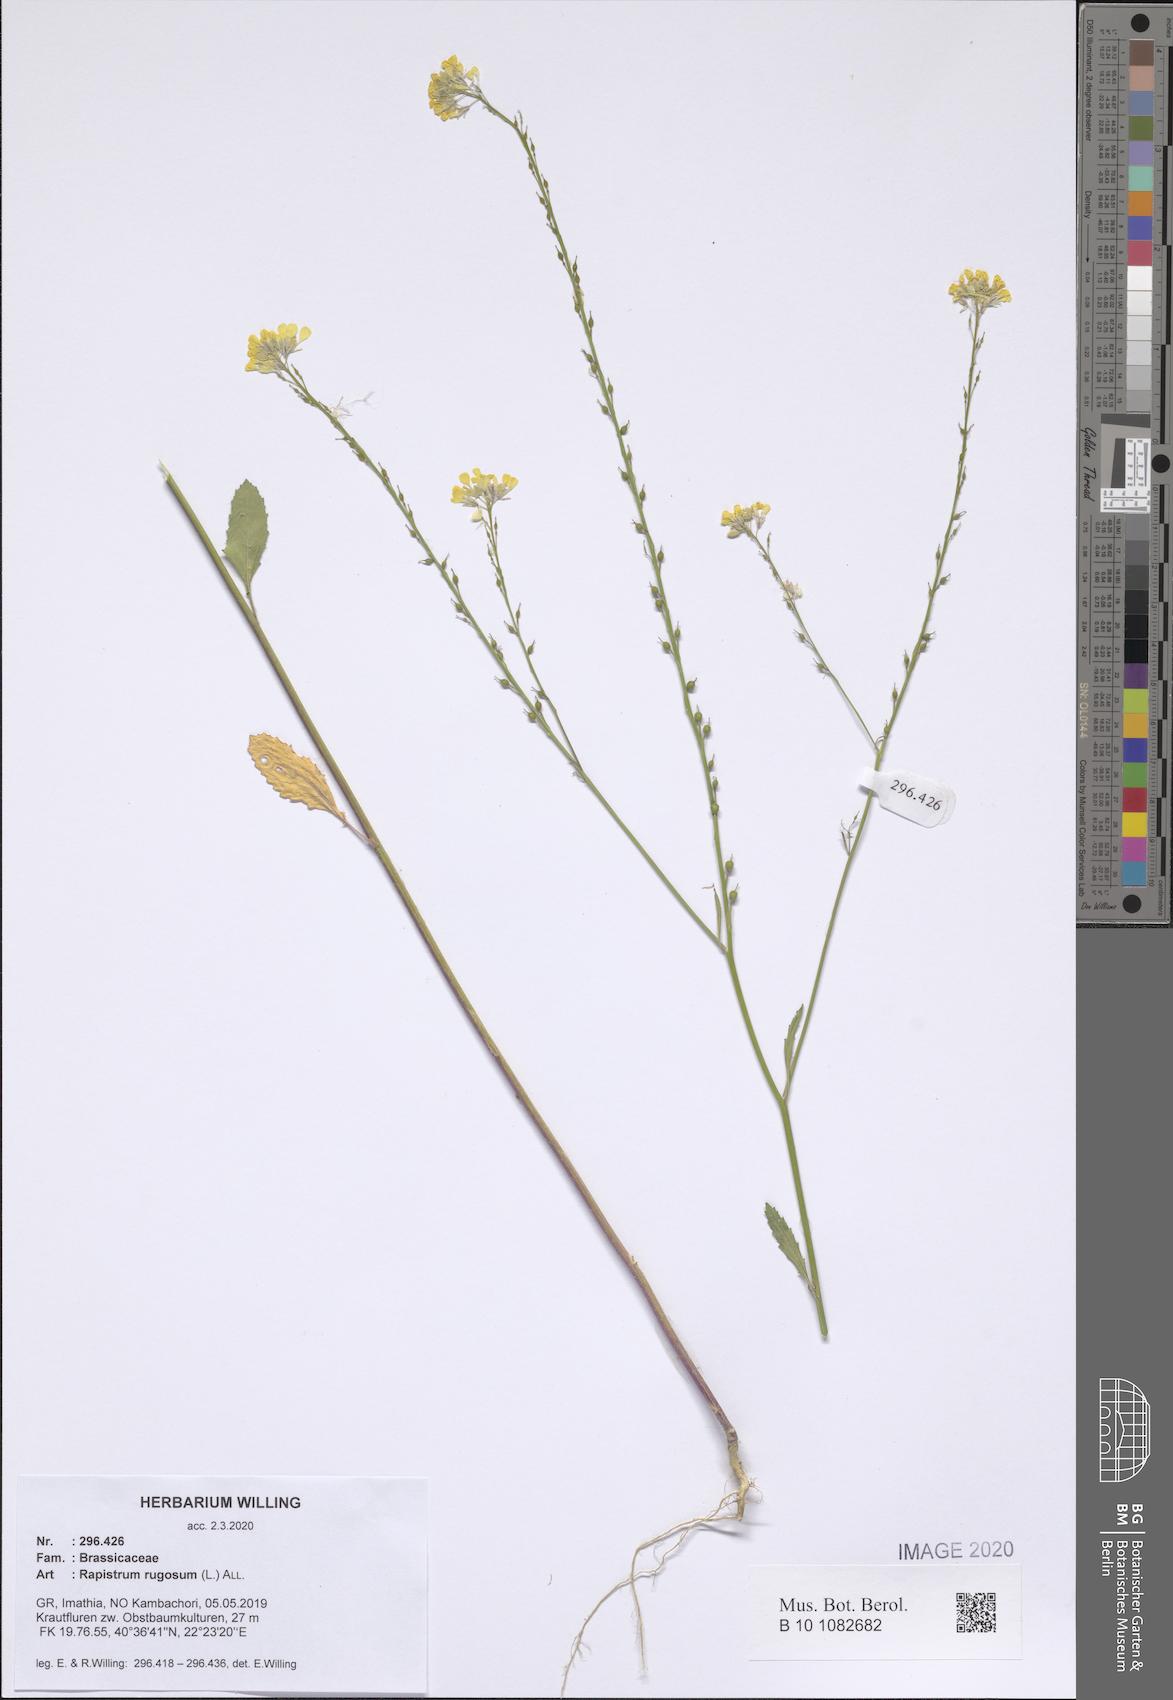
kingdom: Plantae
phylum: Tracheophyta
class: Magnoliopsida
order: Brassicales
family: Brassicaceae
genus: Rapistrum
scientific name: Rapistrum rugosum
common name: Annual bastardcabbage
